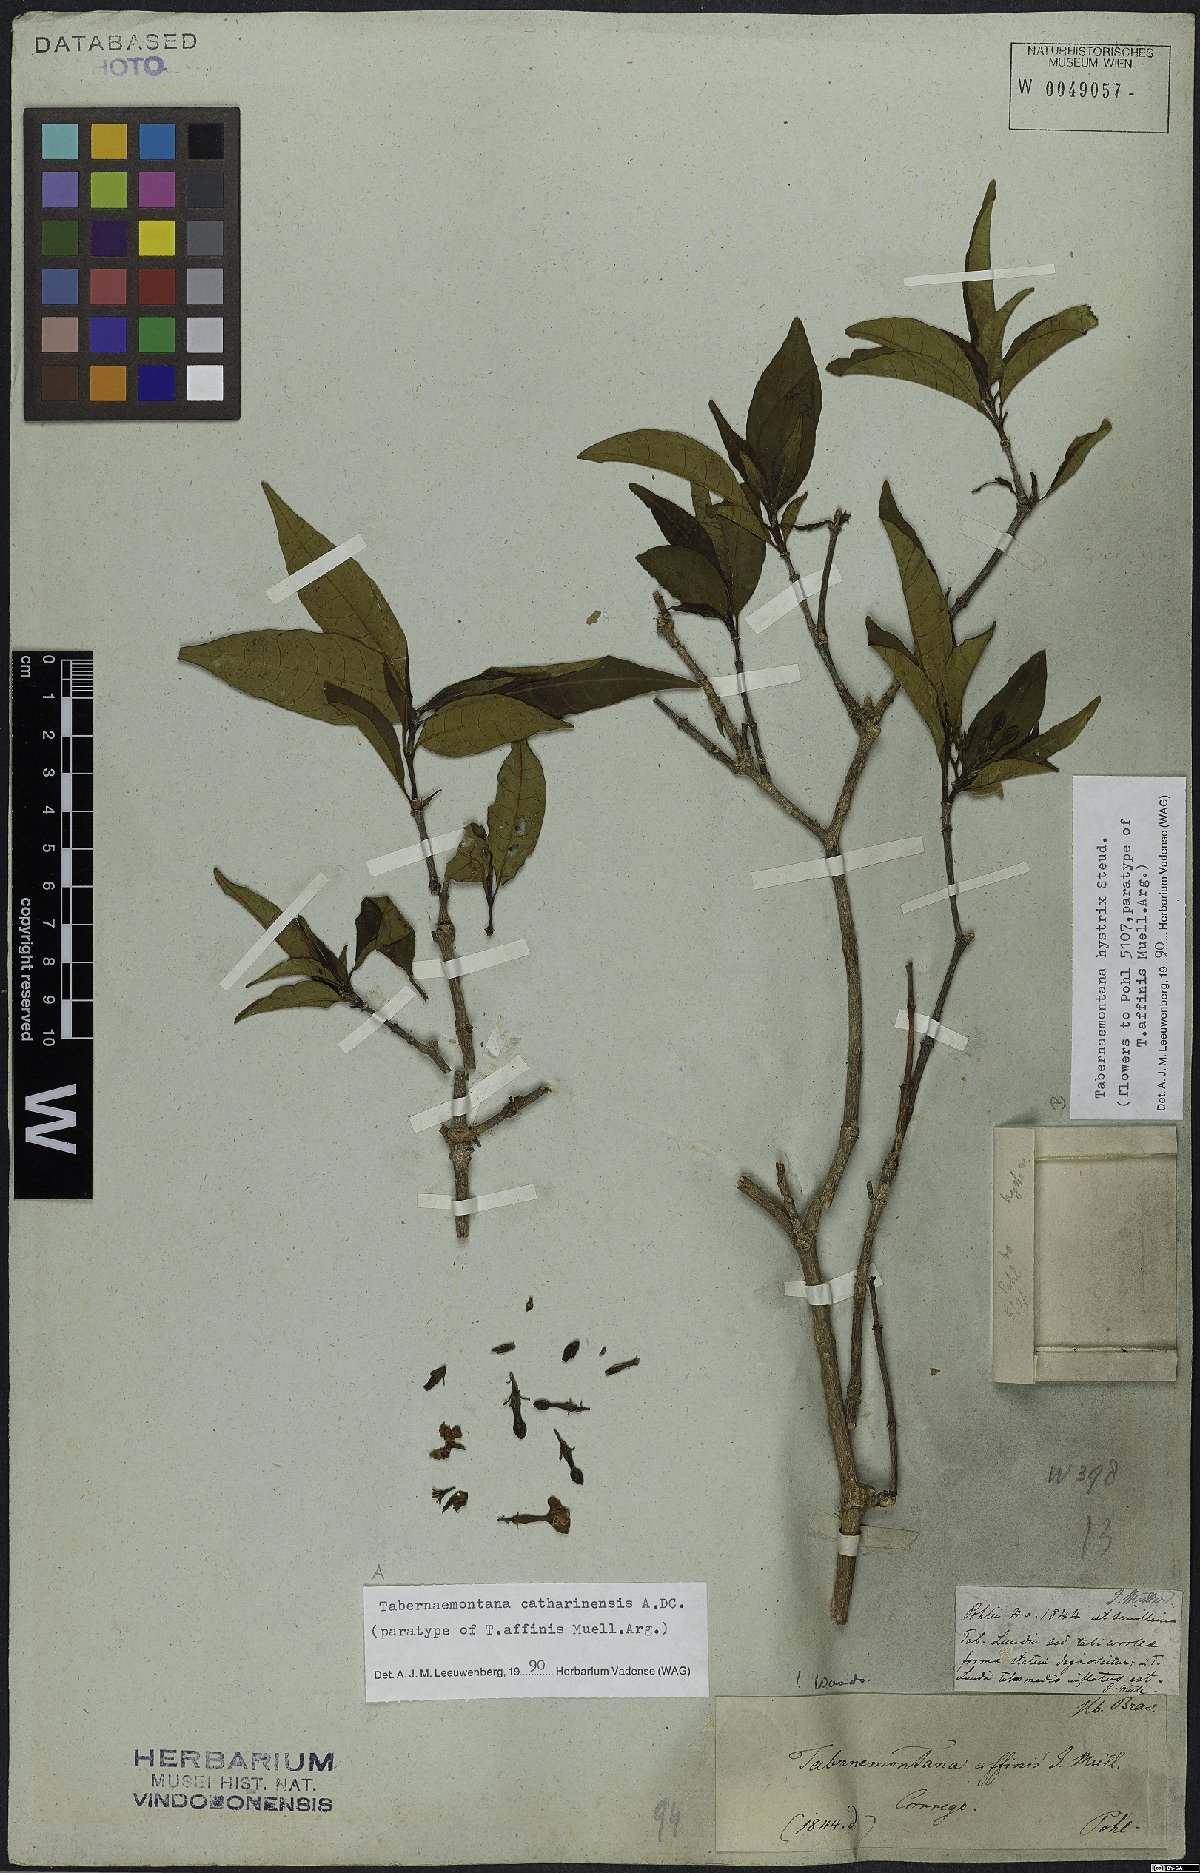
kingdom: Plantae
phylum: Tracheophyta
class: Magnoliopsida
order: Gentianales
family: Apocynaceae
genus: Tabernaemontana
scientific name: Tabernaemontana hystrix
